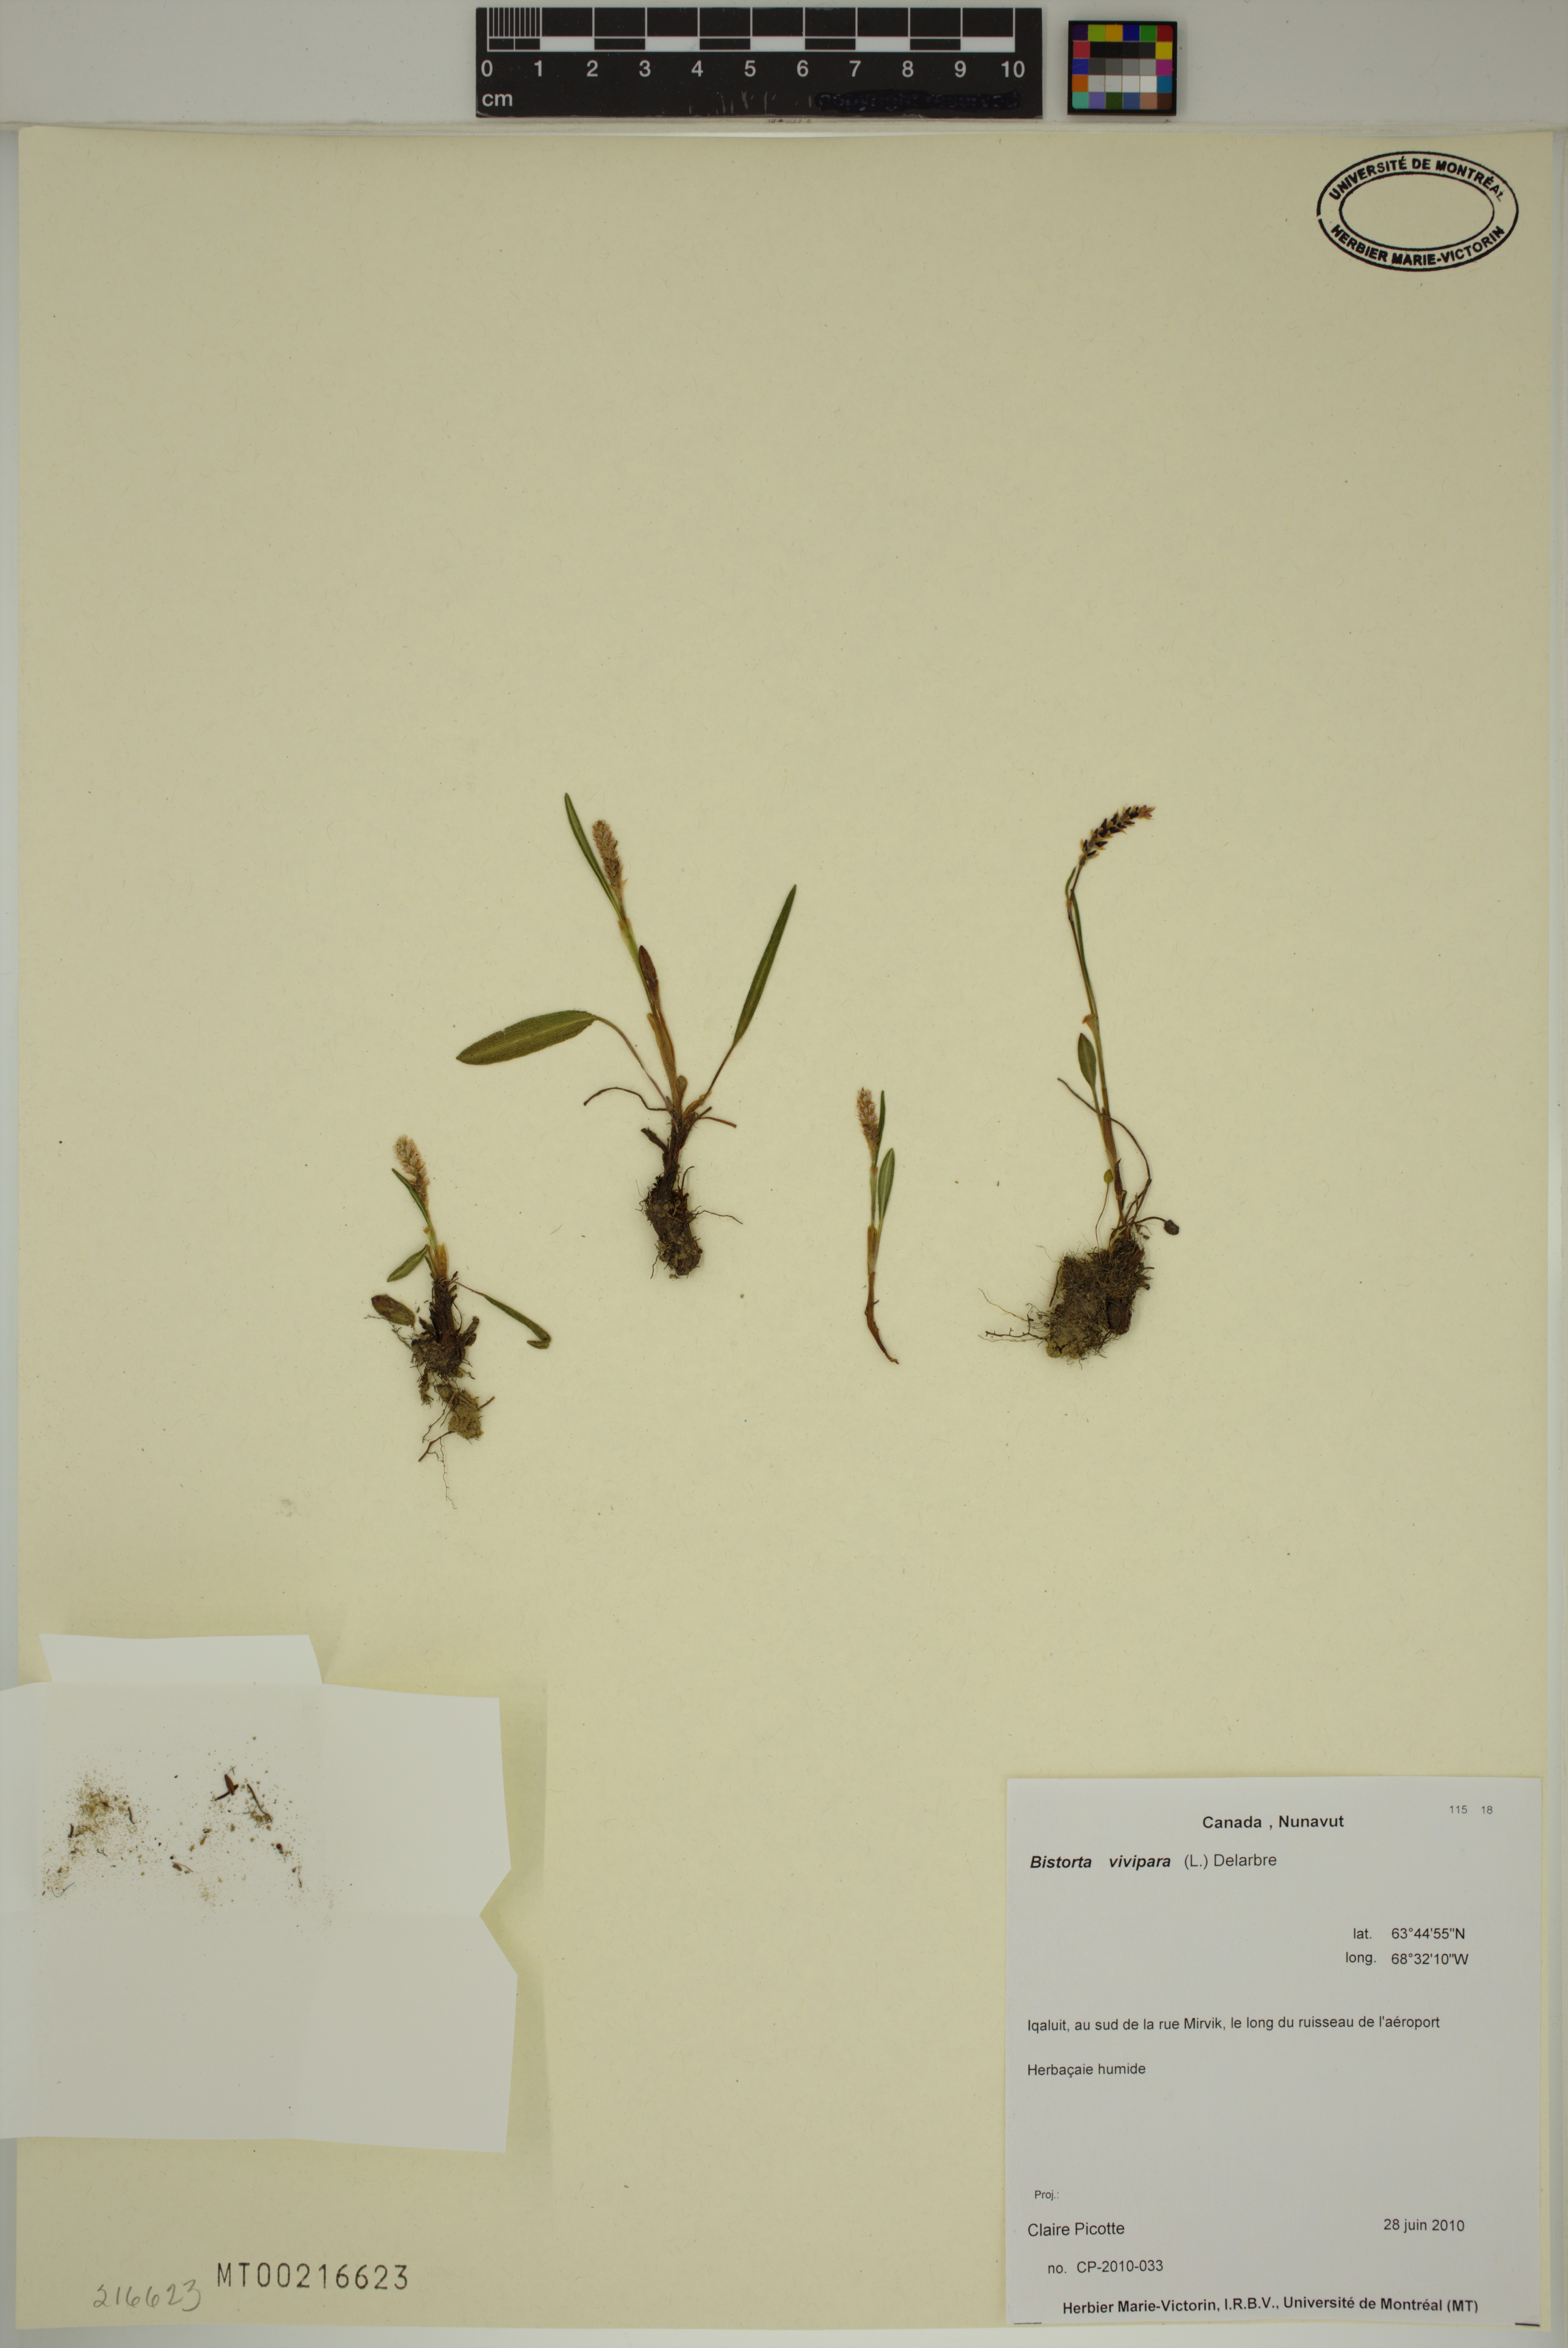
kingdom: Plantae
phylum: Tracheophyta
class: Magnoliopsida
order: Caryophyllales
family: Polygonaceae
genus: Bistorta
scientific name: Bistorta vivipara
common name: Alpine bistort
